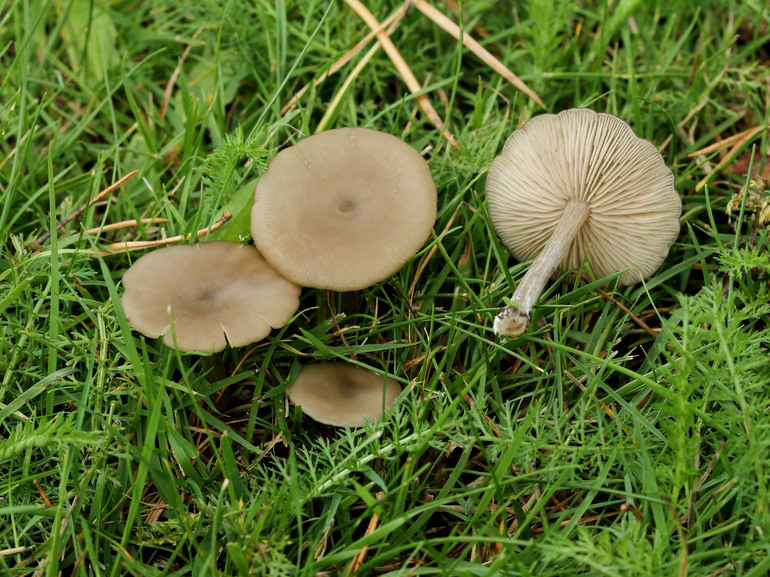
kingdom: Fungi
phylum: Basidiomycota
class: Agaricomycetes
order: Agaricales
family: Entolomataceae
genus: Entoloma
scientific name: Entoloma sericeum
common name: silkeglinsende rødblad
